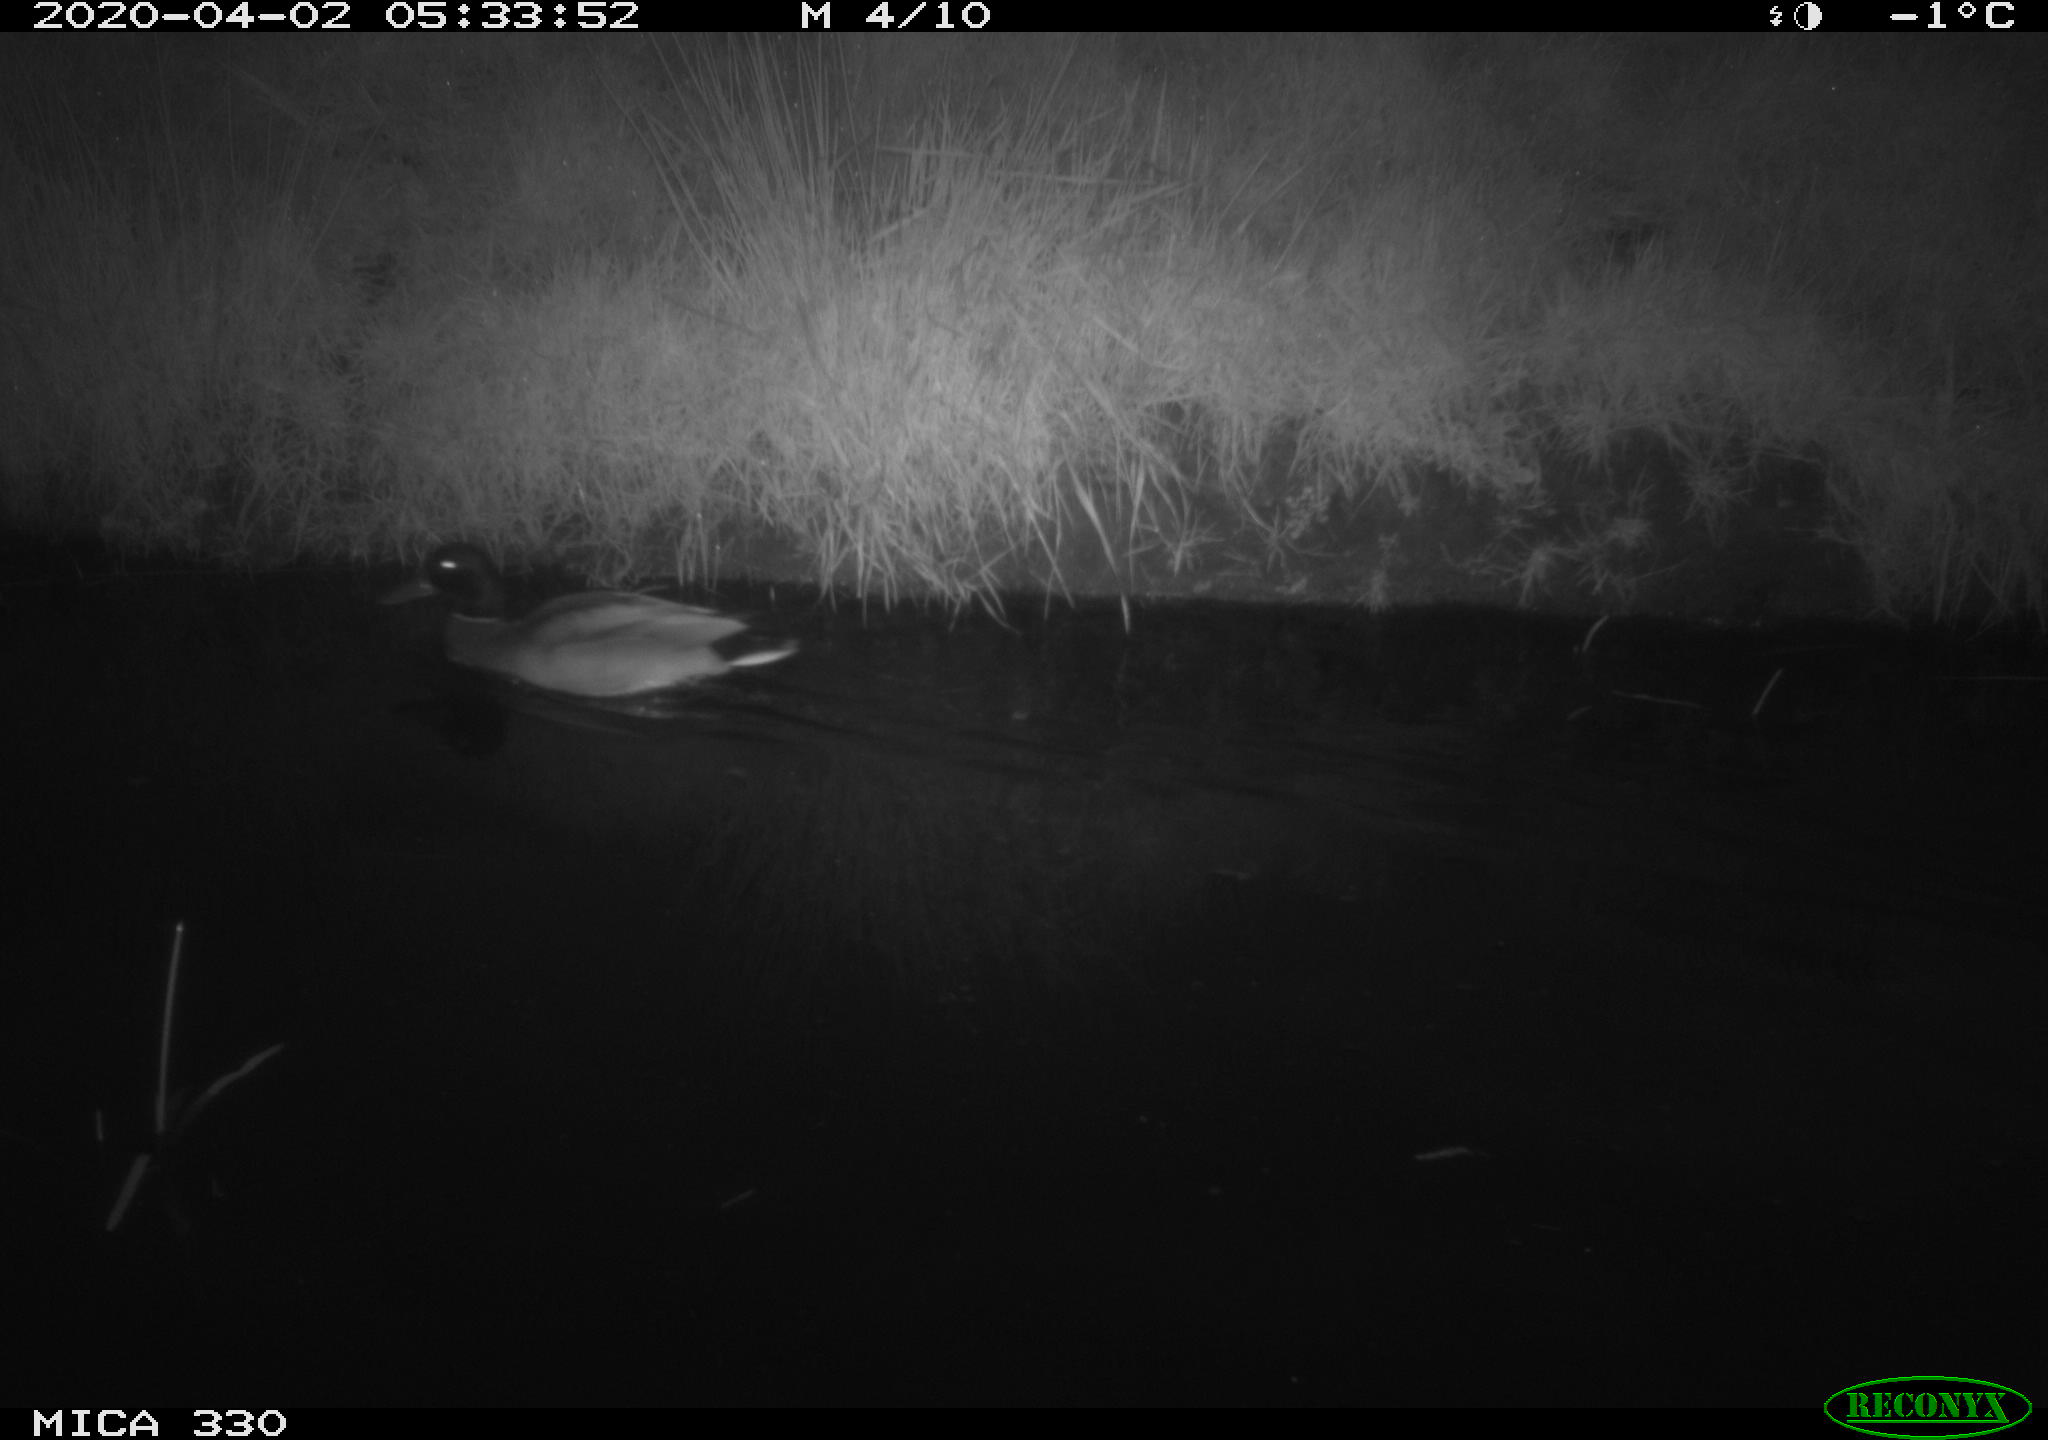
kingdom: Animalia
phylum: Chordata
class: Aves
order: Anseriformes
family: Anatidae
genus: Anas
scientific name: Anas platyrhynchos
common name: Mallard
